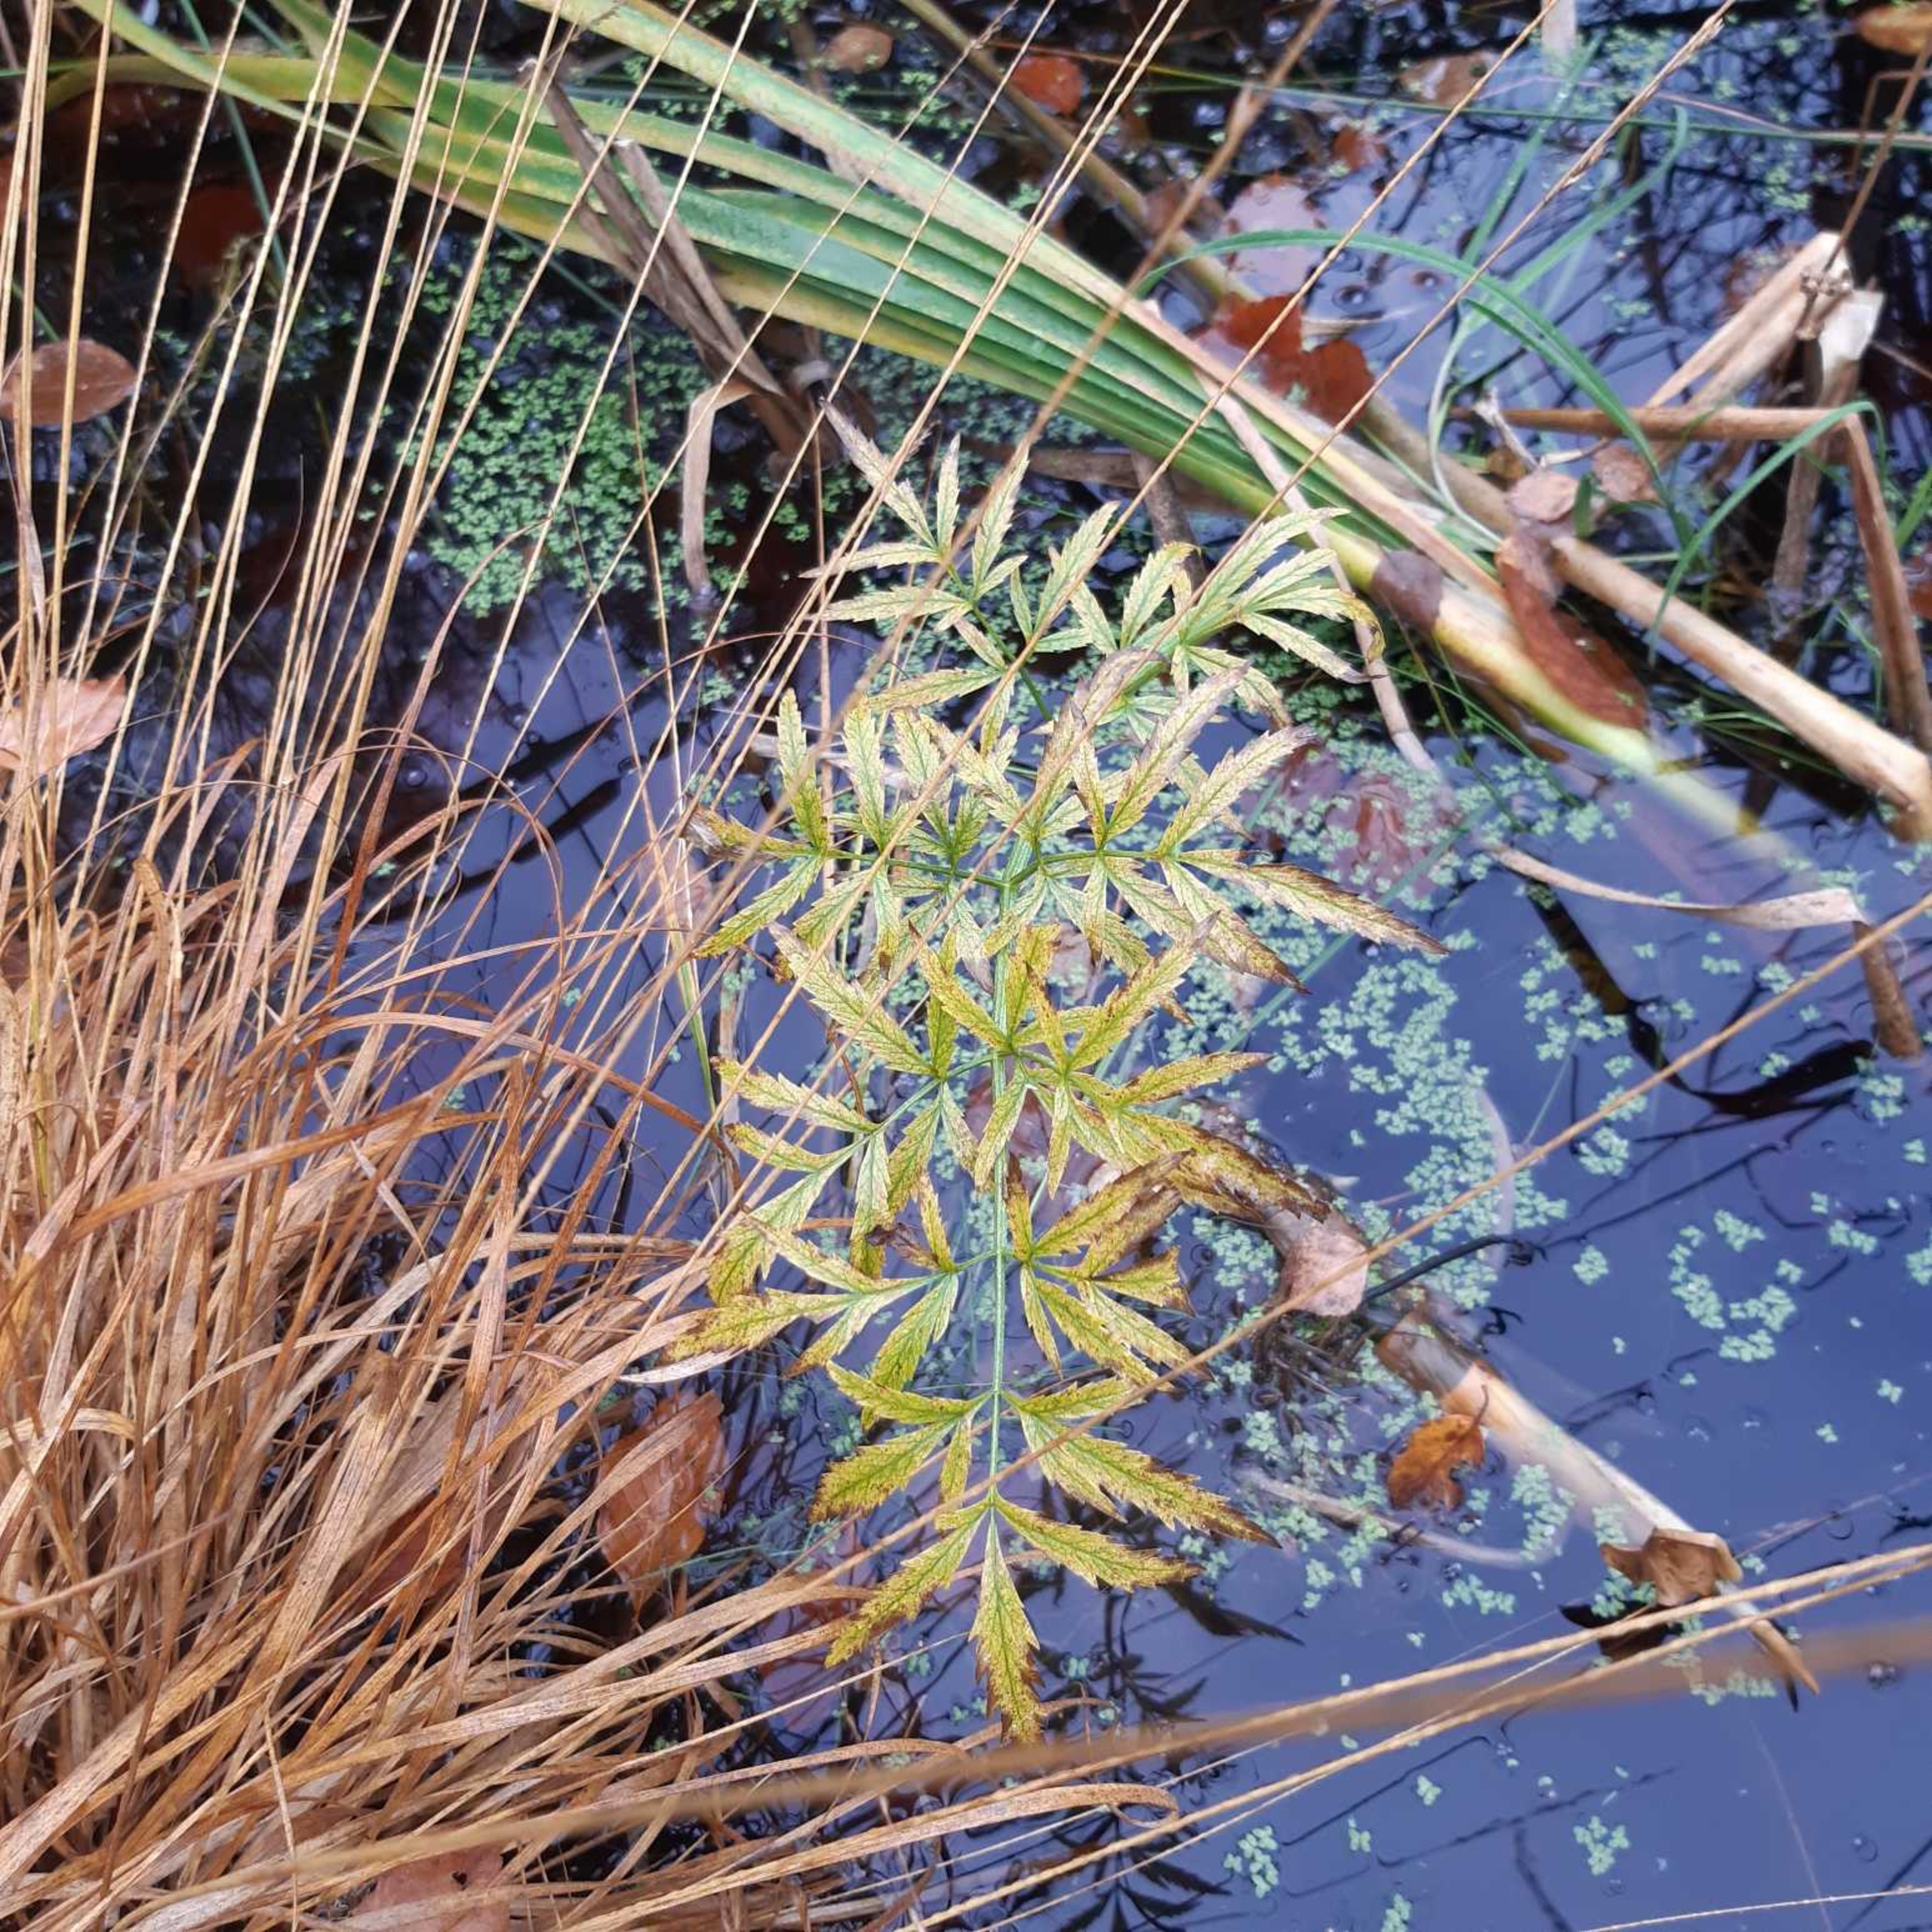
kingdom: Plantae
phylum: Tracheophyta
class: Magnoliopsida
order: Apiales
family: Apiaceae
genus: Cicuta
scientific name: Cicuta virosa
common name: Gifttyde
